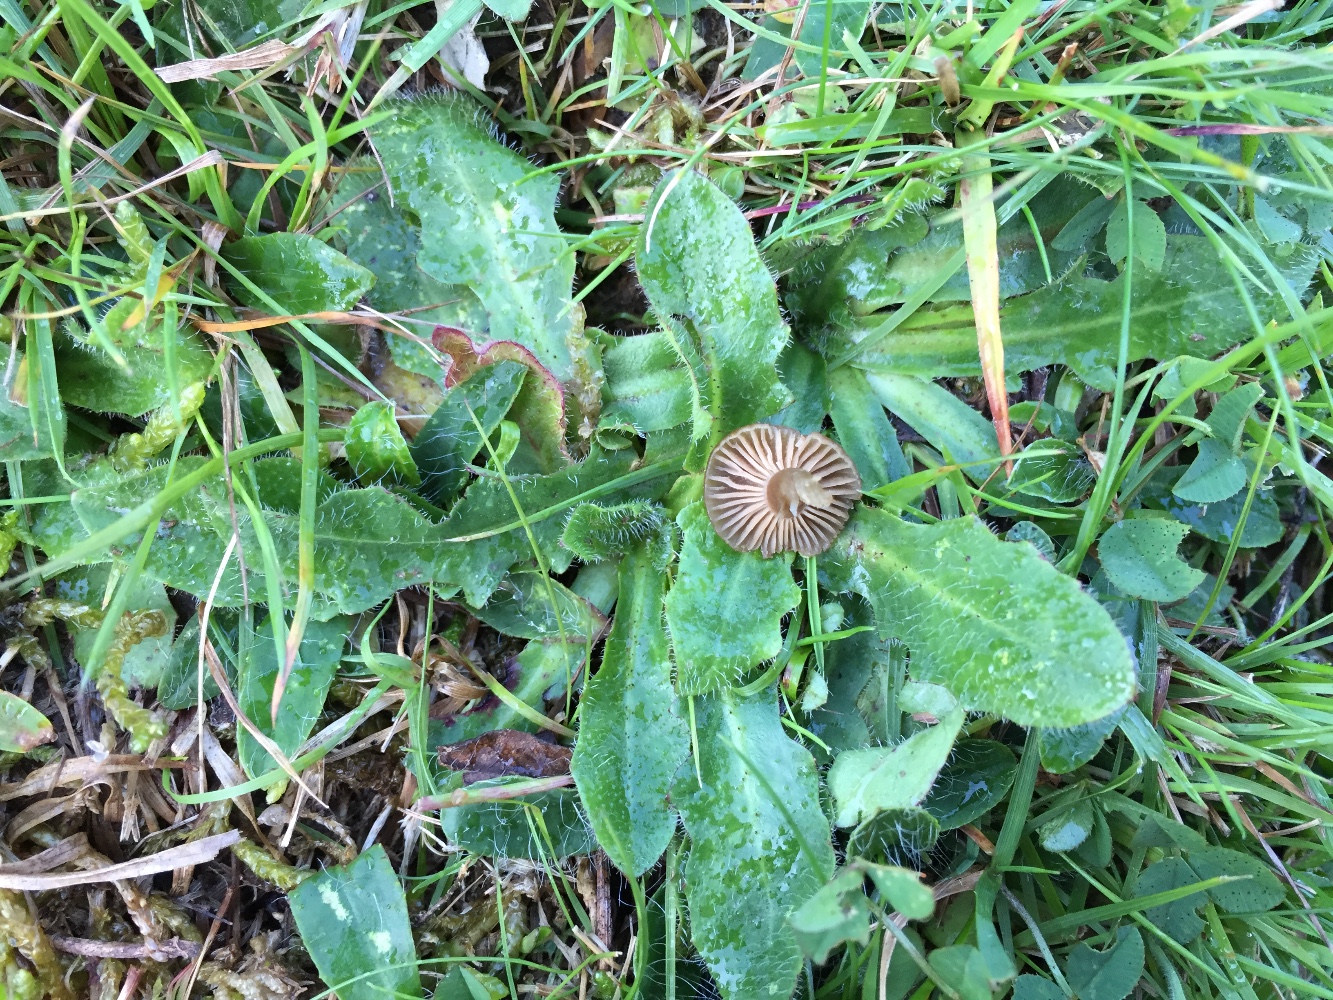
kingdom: Fungi
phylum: Basidiomycota
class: Agaricomycetes
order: Agaricales
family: Clavariaceae
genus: Camarophyllopsis
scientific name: Camarophyllopsis schulzeri
